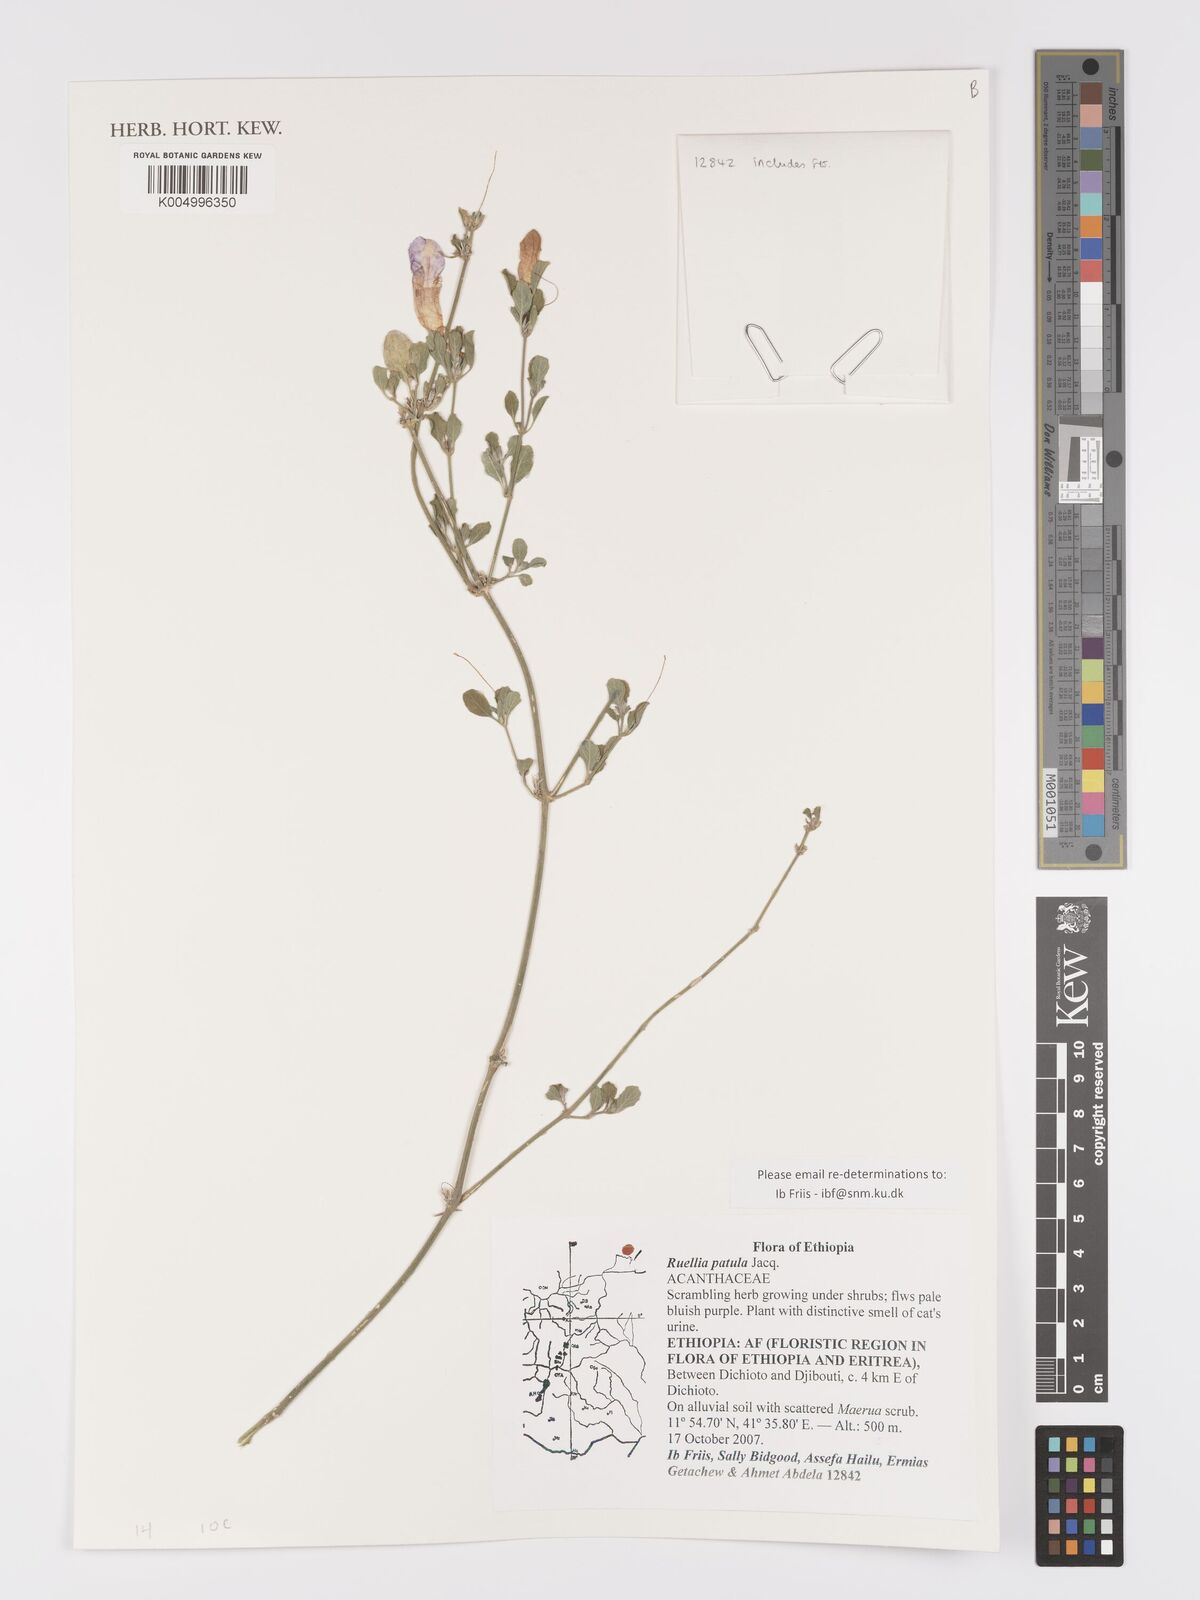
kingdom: Plantae
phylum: Tracheophyta
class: Magnoliopsida
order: Lamiales
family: Acanthaceae
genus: Ruellia
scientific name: Ruellia patula
